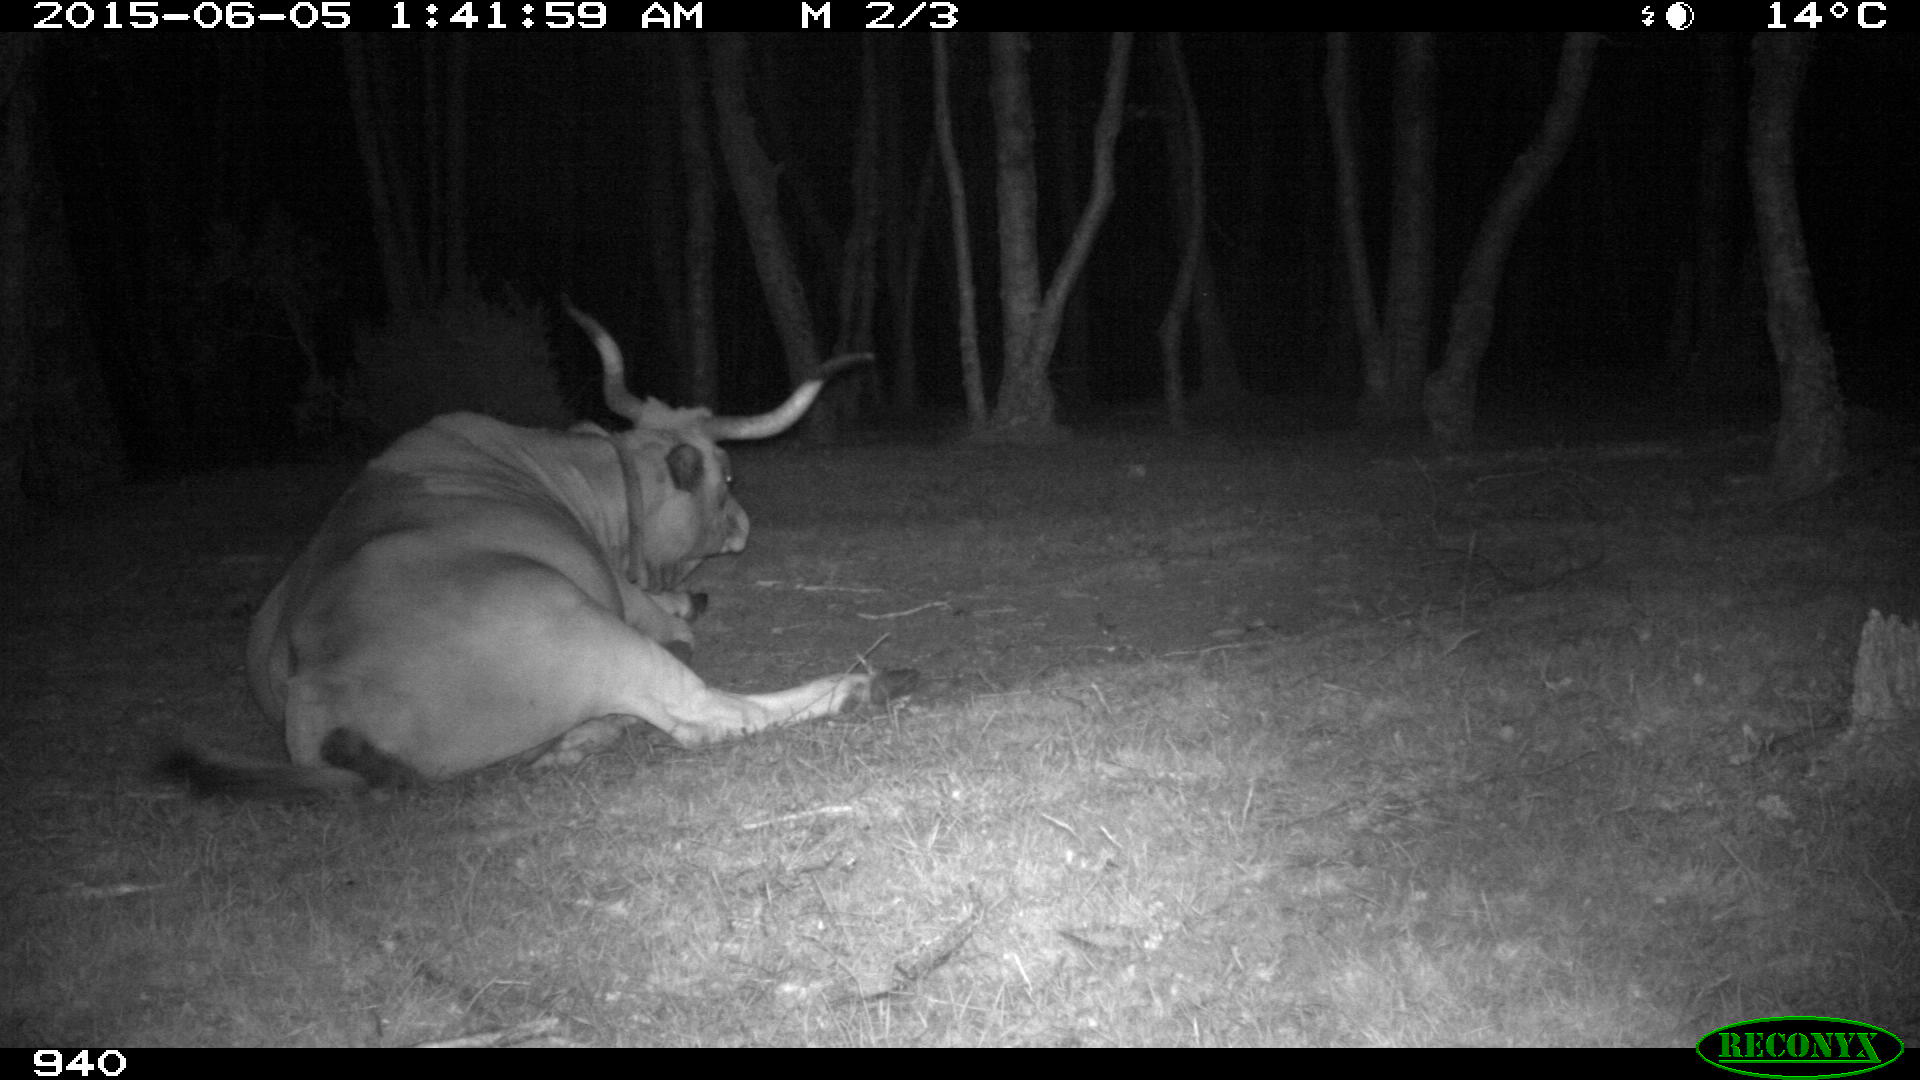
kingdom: Animalia
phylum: Chordata
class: Mammalia
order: Artiodactyla
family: Bovidae
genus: Bos
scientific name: Bos taurus
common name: Domesticated cattle
